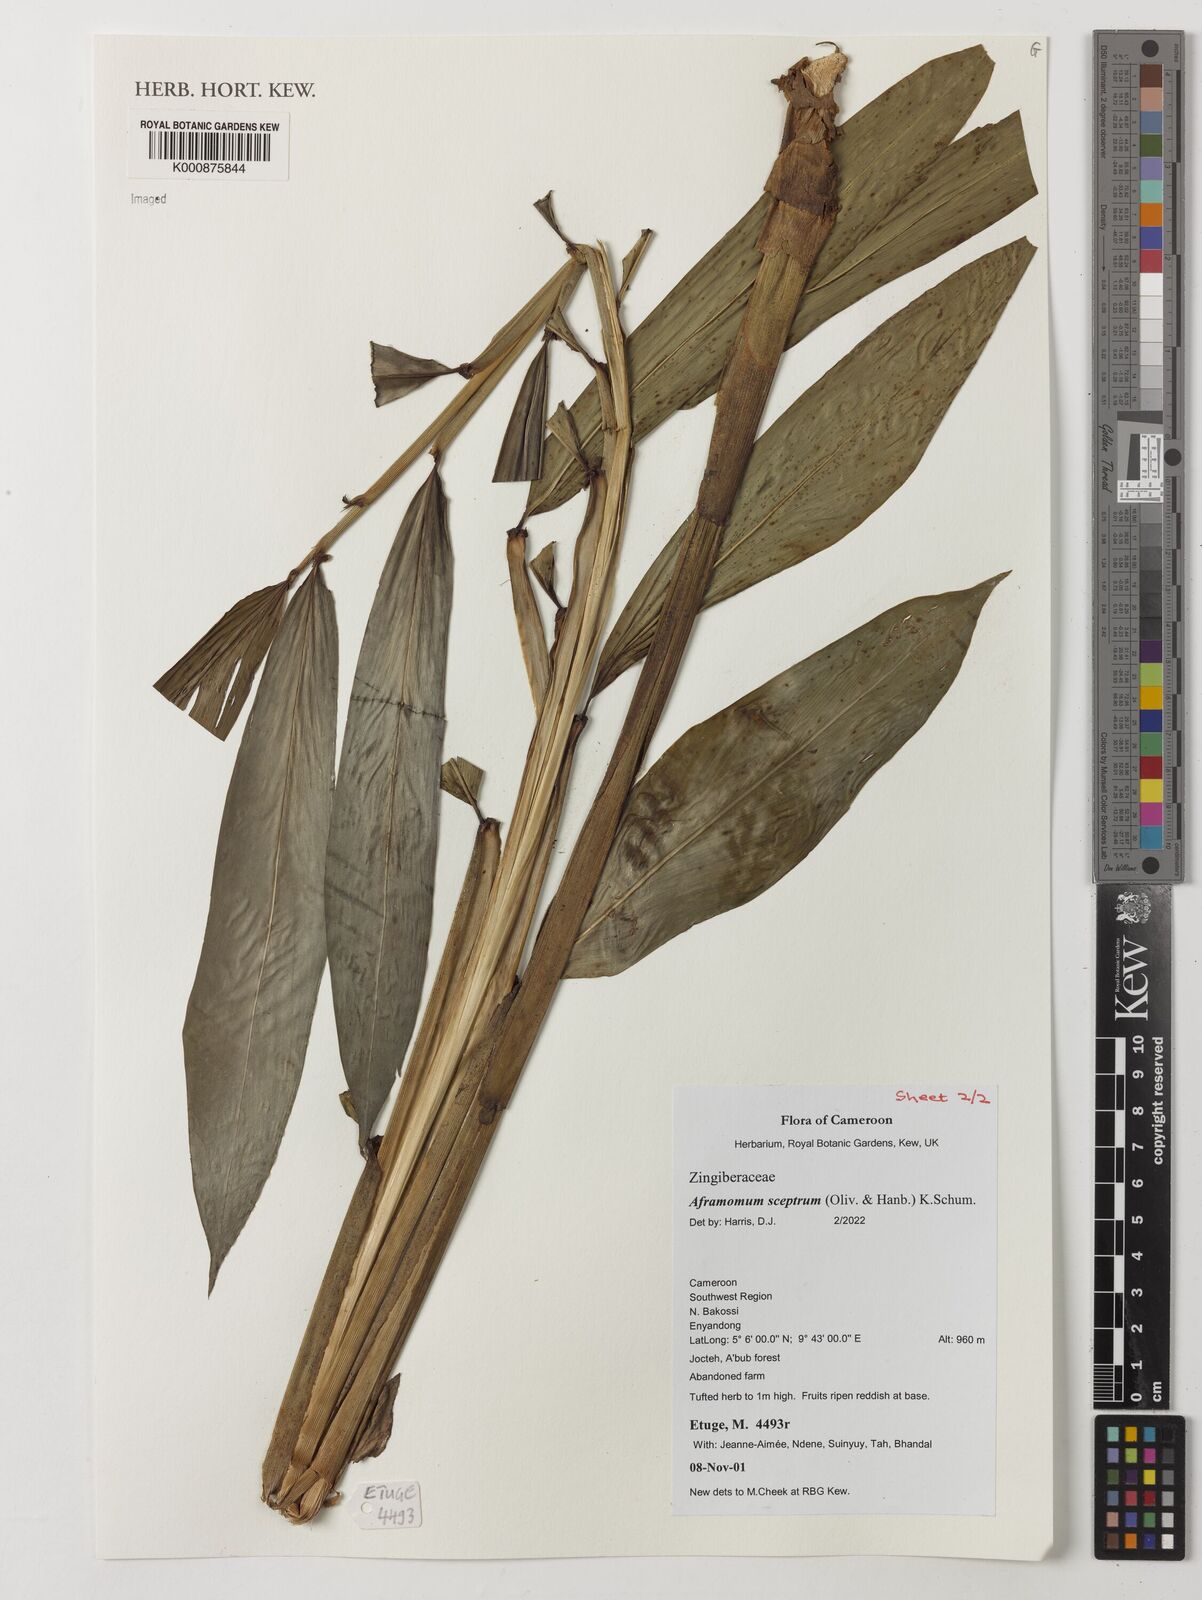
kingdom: Plantae
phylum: Tracheophyta
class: Liliopsida
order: Zingiberales
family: Zingiberaceae
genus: Aframomum
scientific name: Aframomum cereum
